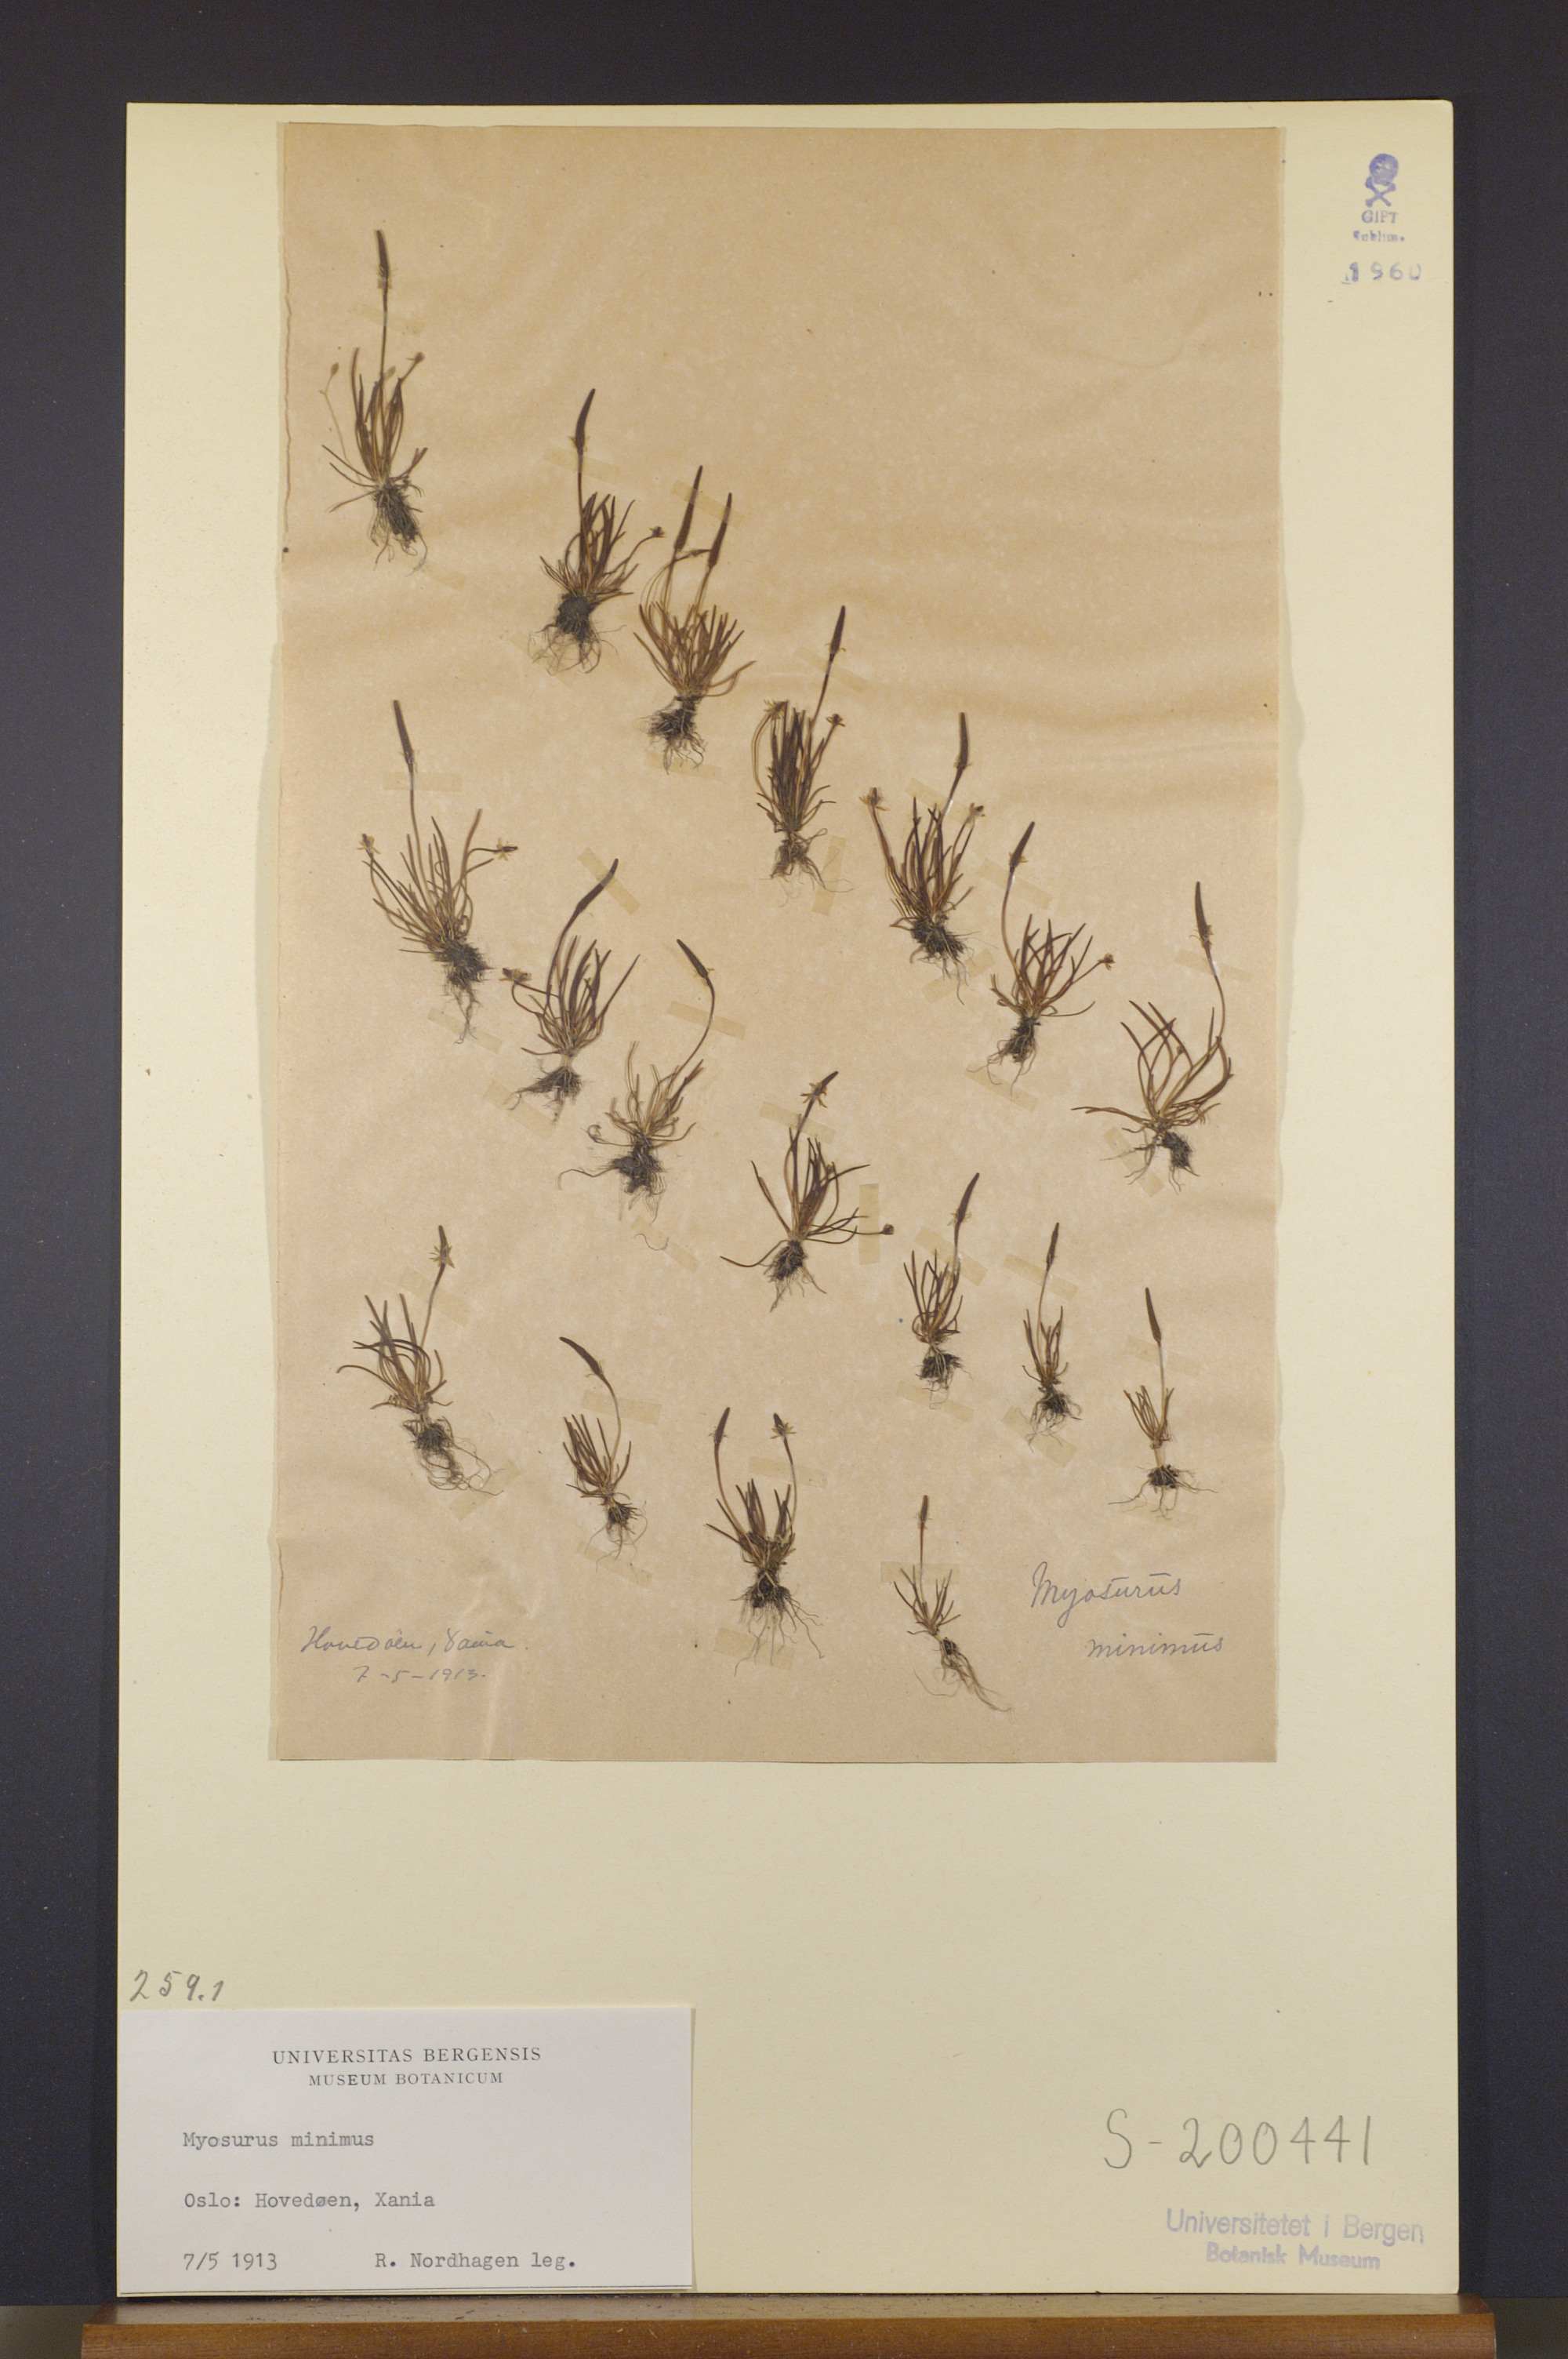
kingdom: Plantae
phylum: Tracheophyta
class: Magnoliopsida
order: Ranunculales
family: Ranunculaceae
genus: Myosurus
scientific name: Myosurus minimus
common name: Mousetail
